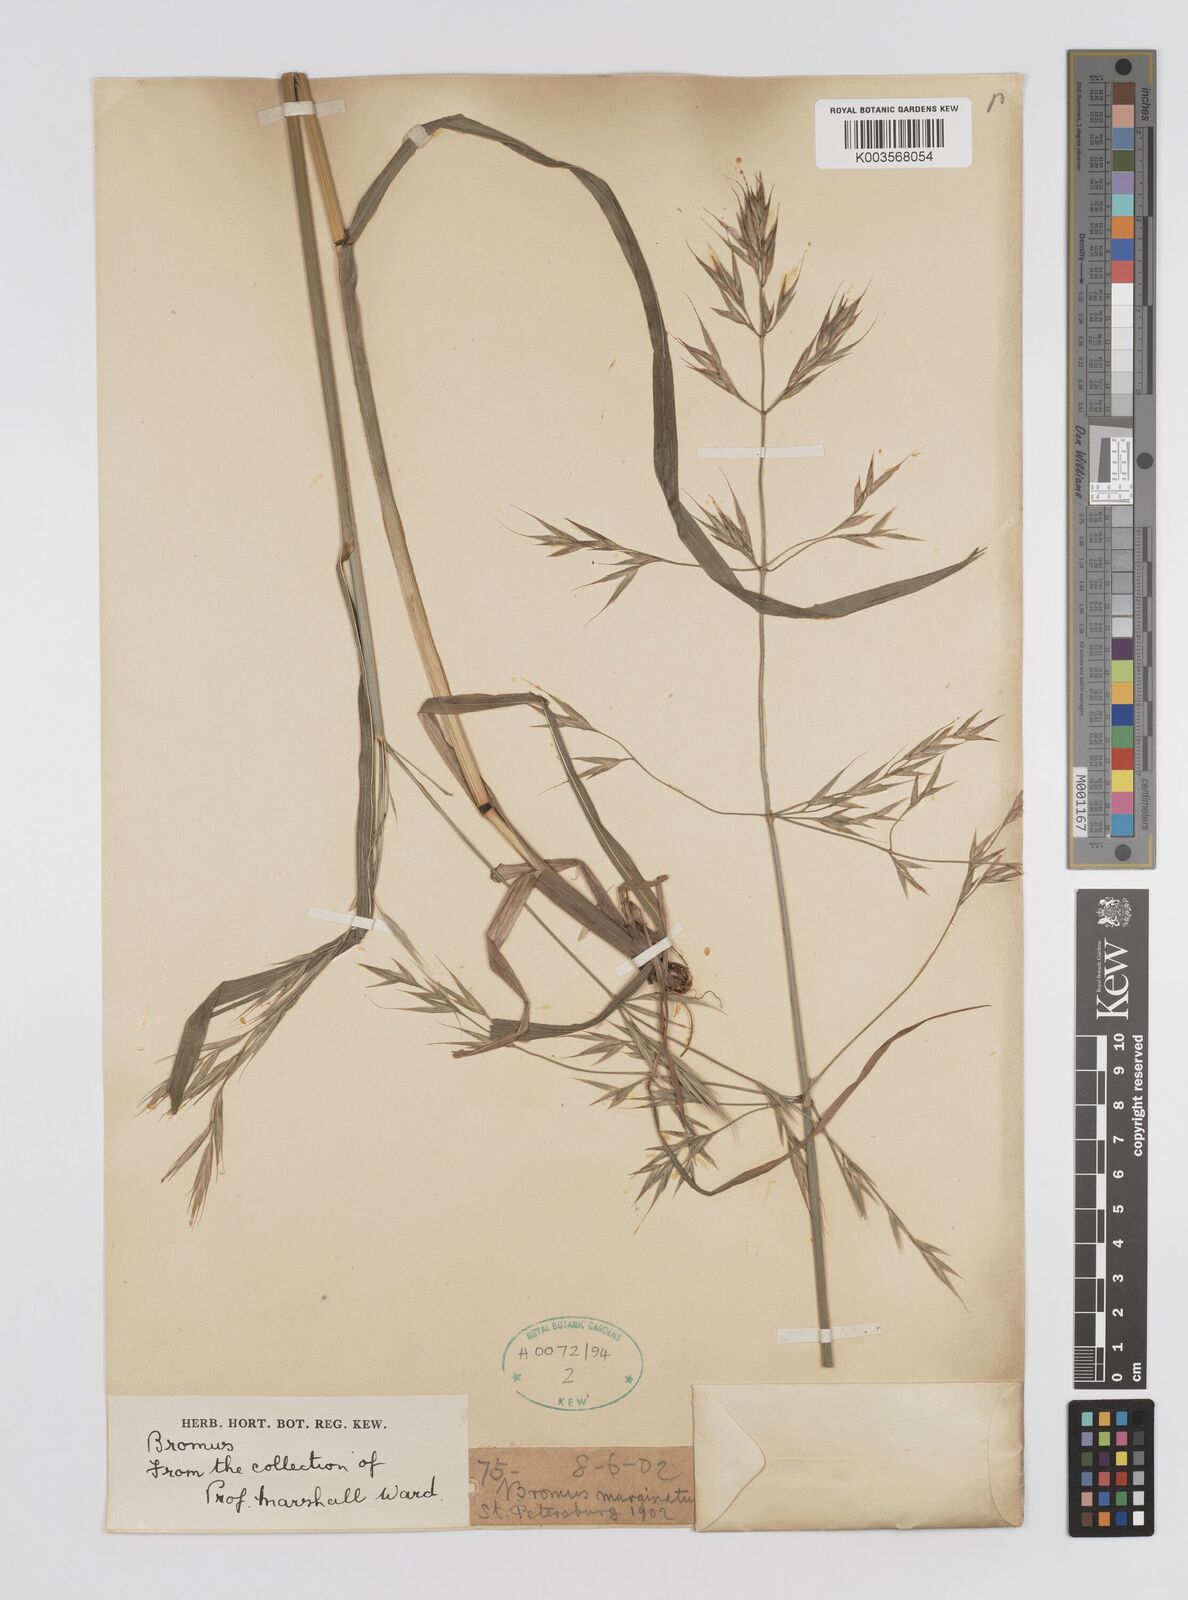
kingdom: Plantae
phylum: Tracheophyta
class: Liliopsida
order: Poales
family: Poaceae
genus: Brachypodium
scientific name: Brachypodium retusum
